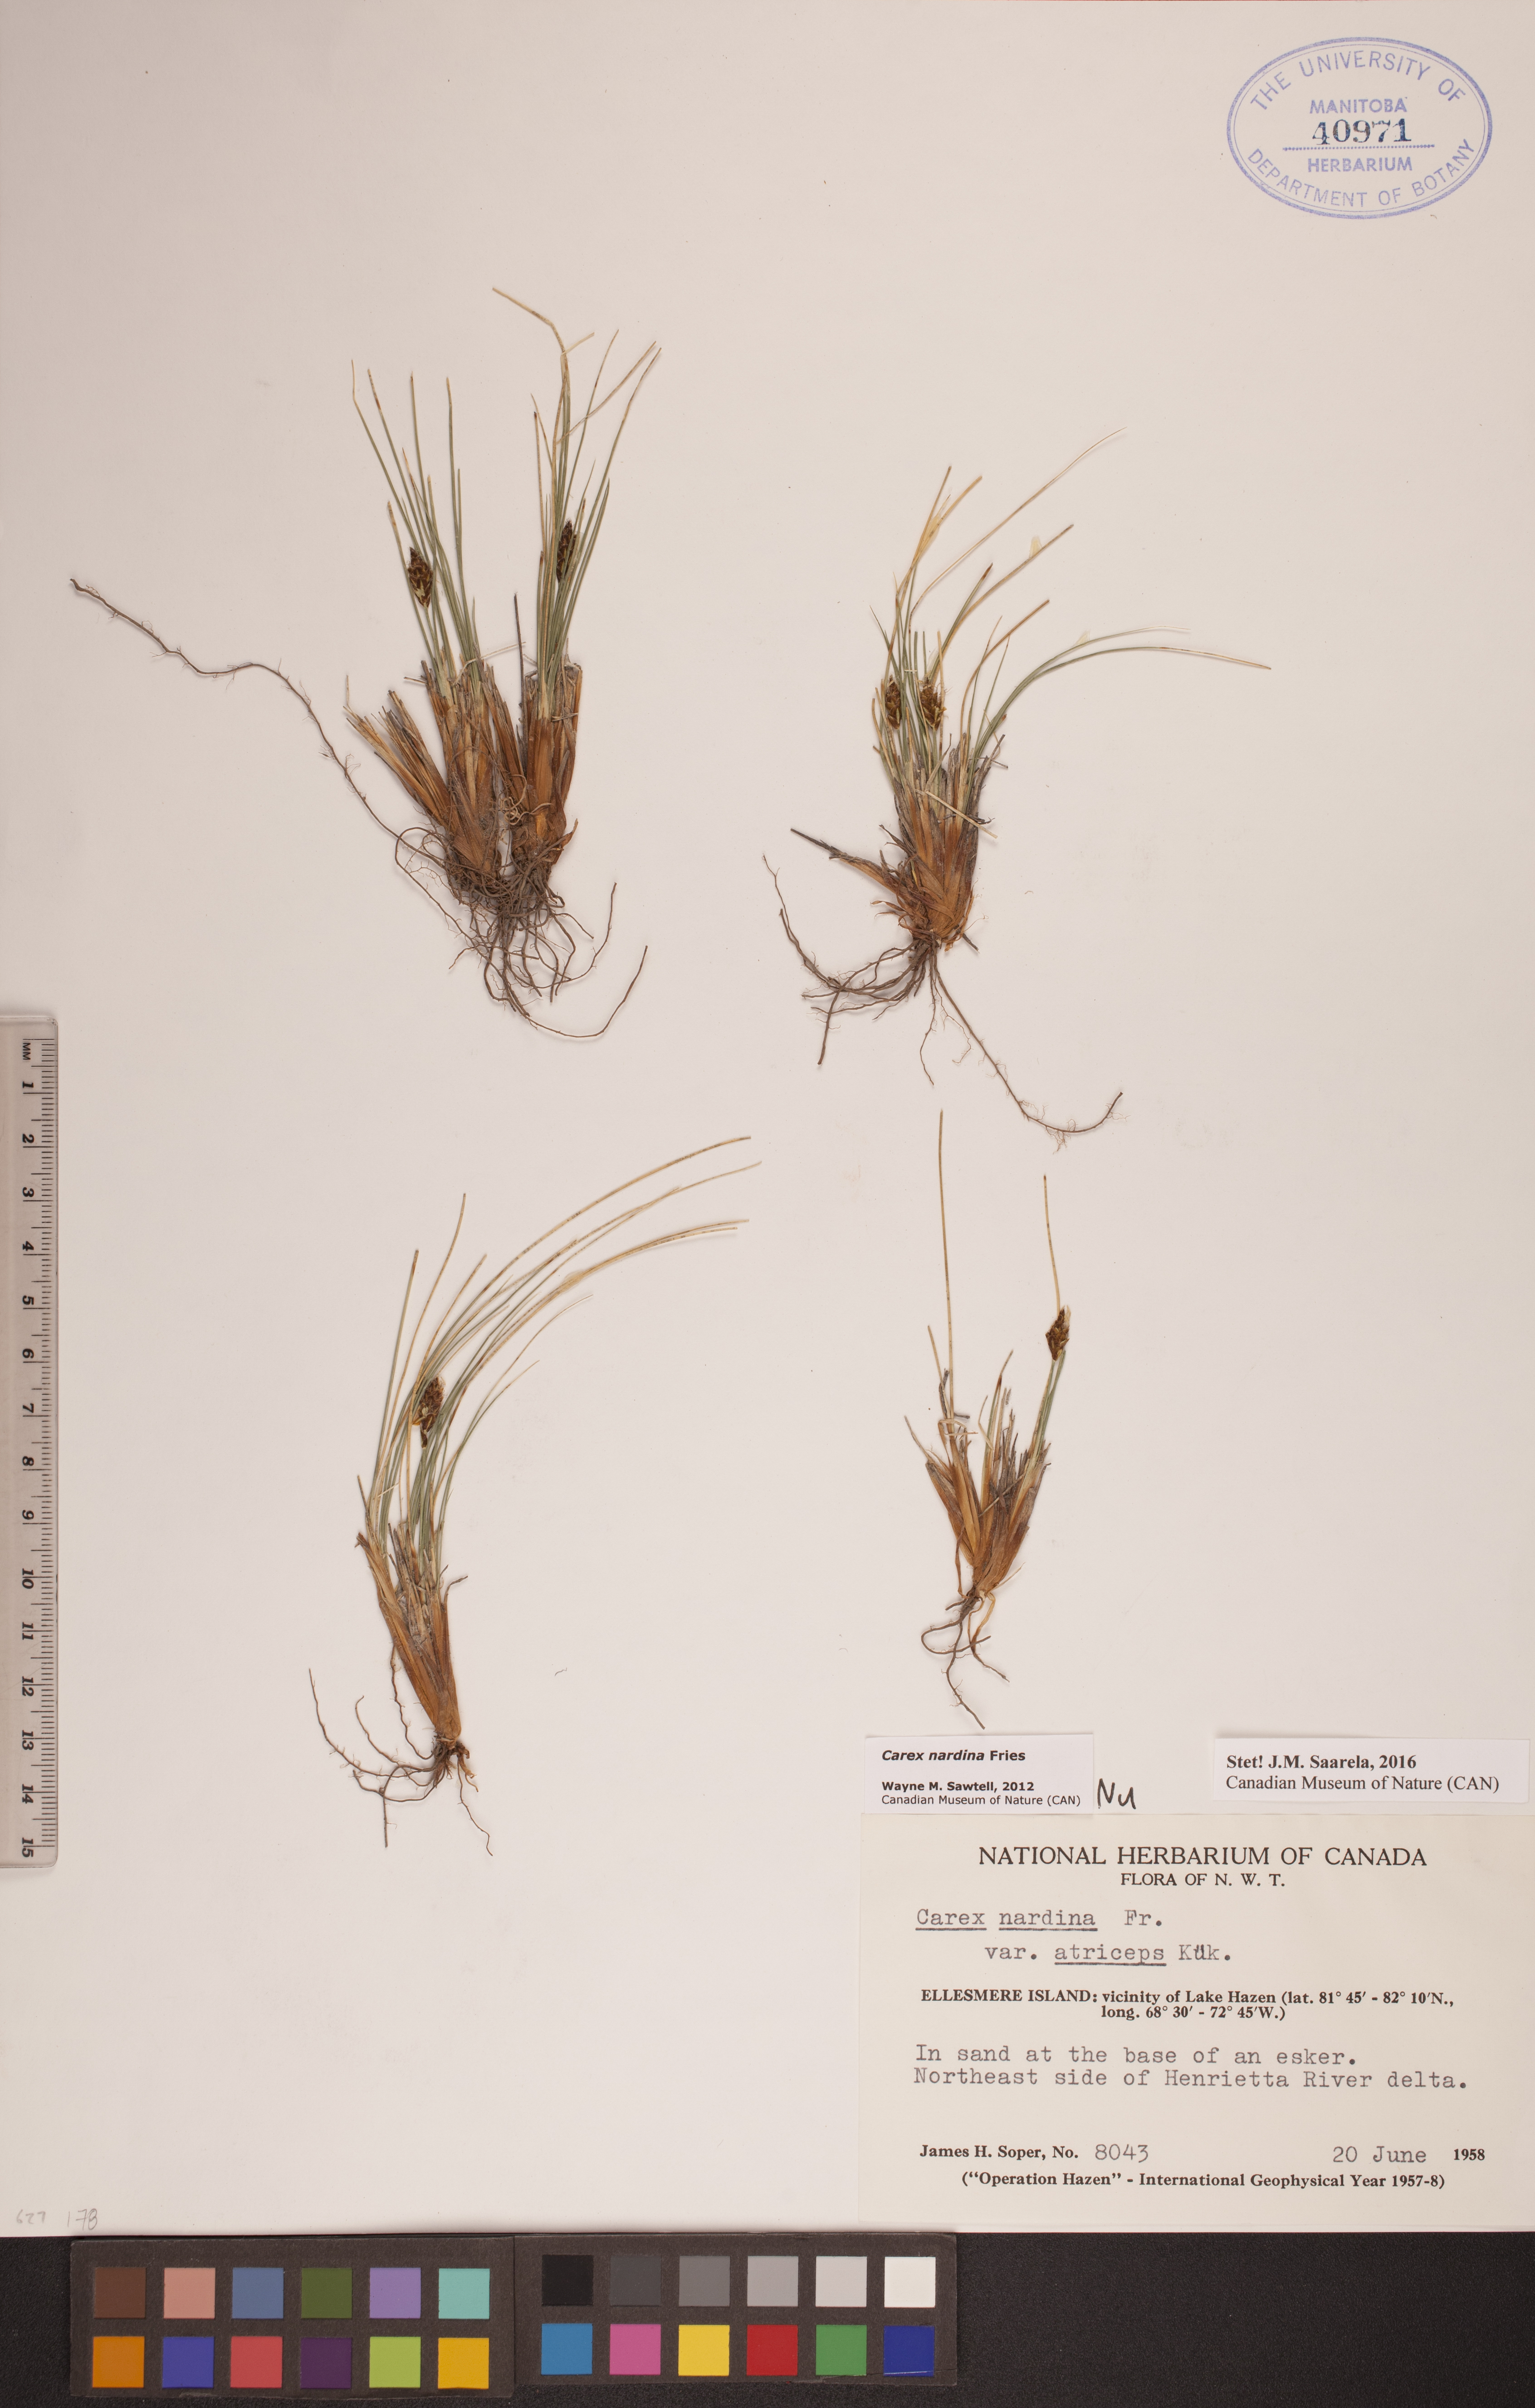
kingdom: Plantae
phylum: Tracheophyta
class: Liliopsida
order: Poales
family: Cyperaceae
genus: Carex
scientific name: Carex nardina
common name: Nard sedge
